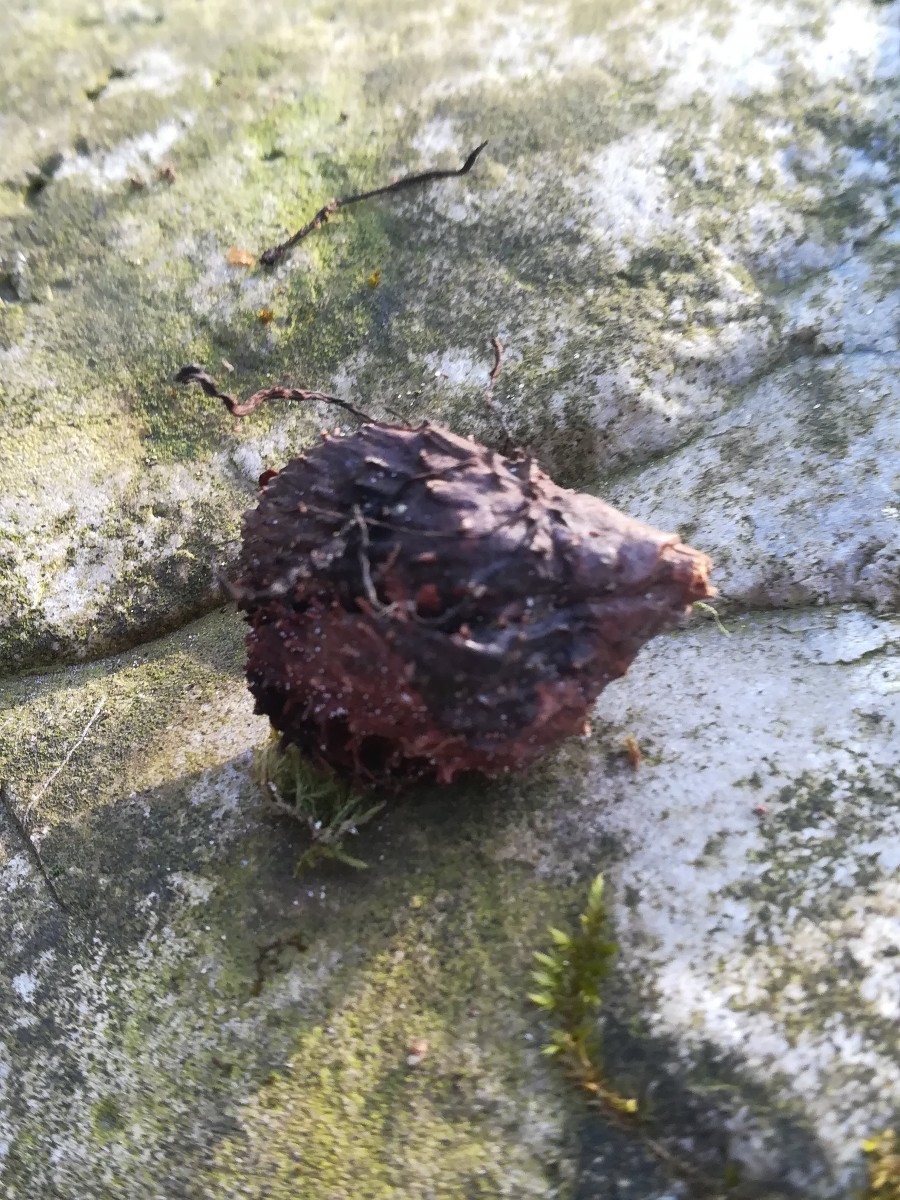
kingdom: Fungi
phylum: Ascomycota
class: Sordariomycetes
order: Xylariales
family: Xylariaceae
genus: Xylaria
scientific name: Xylaria carpophila
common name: bogskål-stødsvamp
